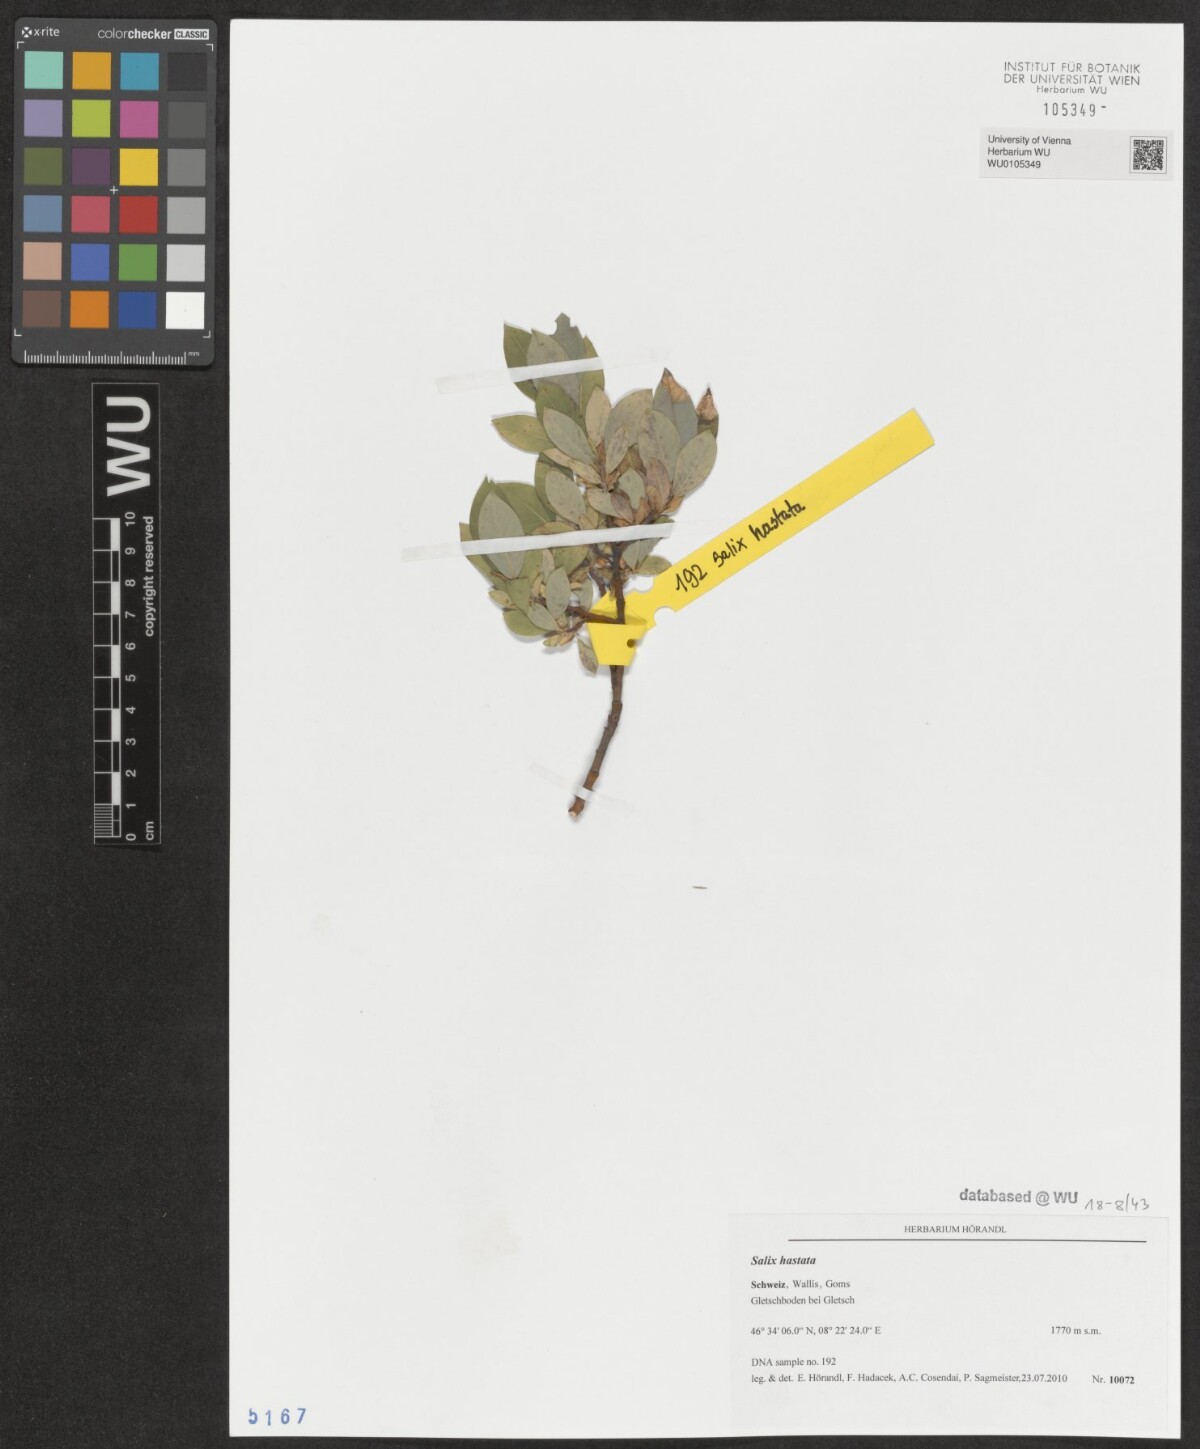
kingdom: Plantae
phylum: Tracheophyta
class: Magnoliopsida
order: Malpighiales
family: Salicaceae
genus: Salix
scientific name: Salix hastata
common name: Halberd willow
